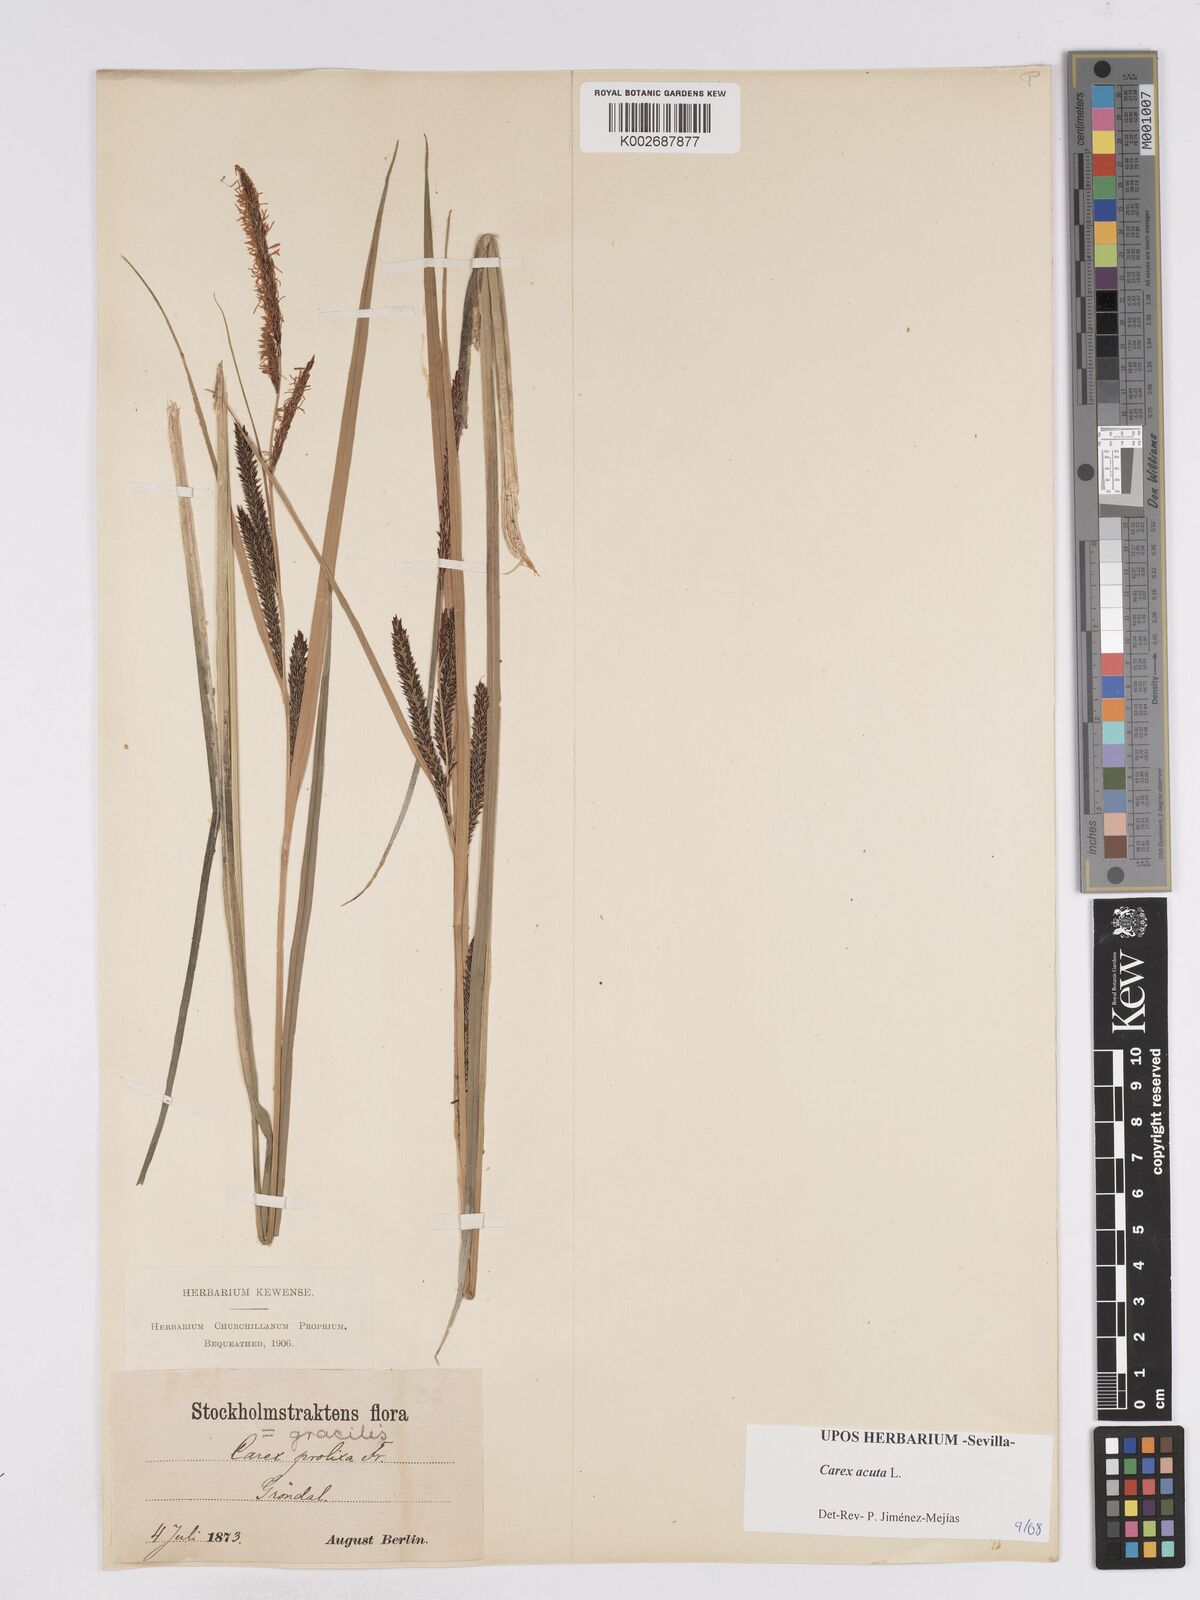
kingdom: Plantae
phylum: Tracheophyta
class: Liliopsida
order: Poales
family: Cyperaceae
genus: Carex
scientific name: Carex acuta
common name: Slender tufted-sedge
